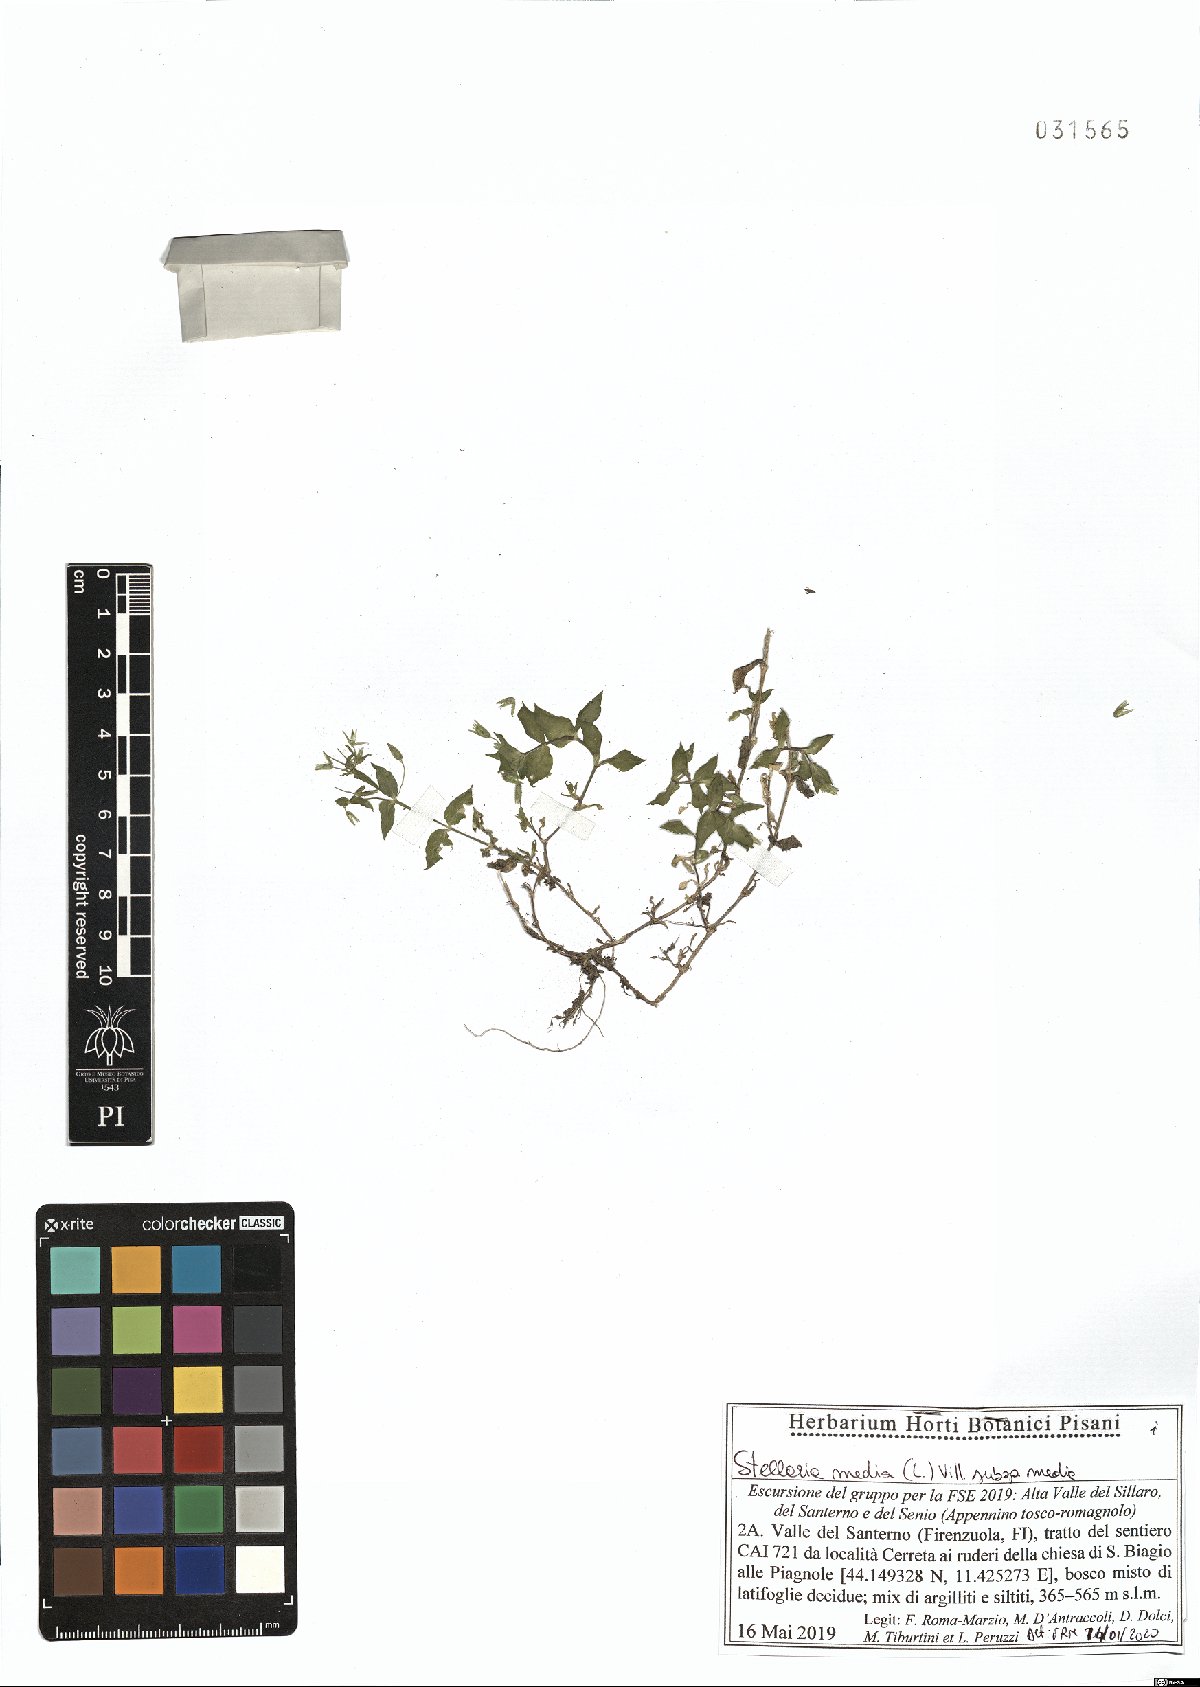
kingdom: Plantae
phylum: Tracheophyta
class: Magnoliopsida
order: Caryophyllales
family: Caryophyllaceae
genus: Stellaria
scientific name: Stellaria media
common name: Common chickweed
